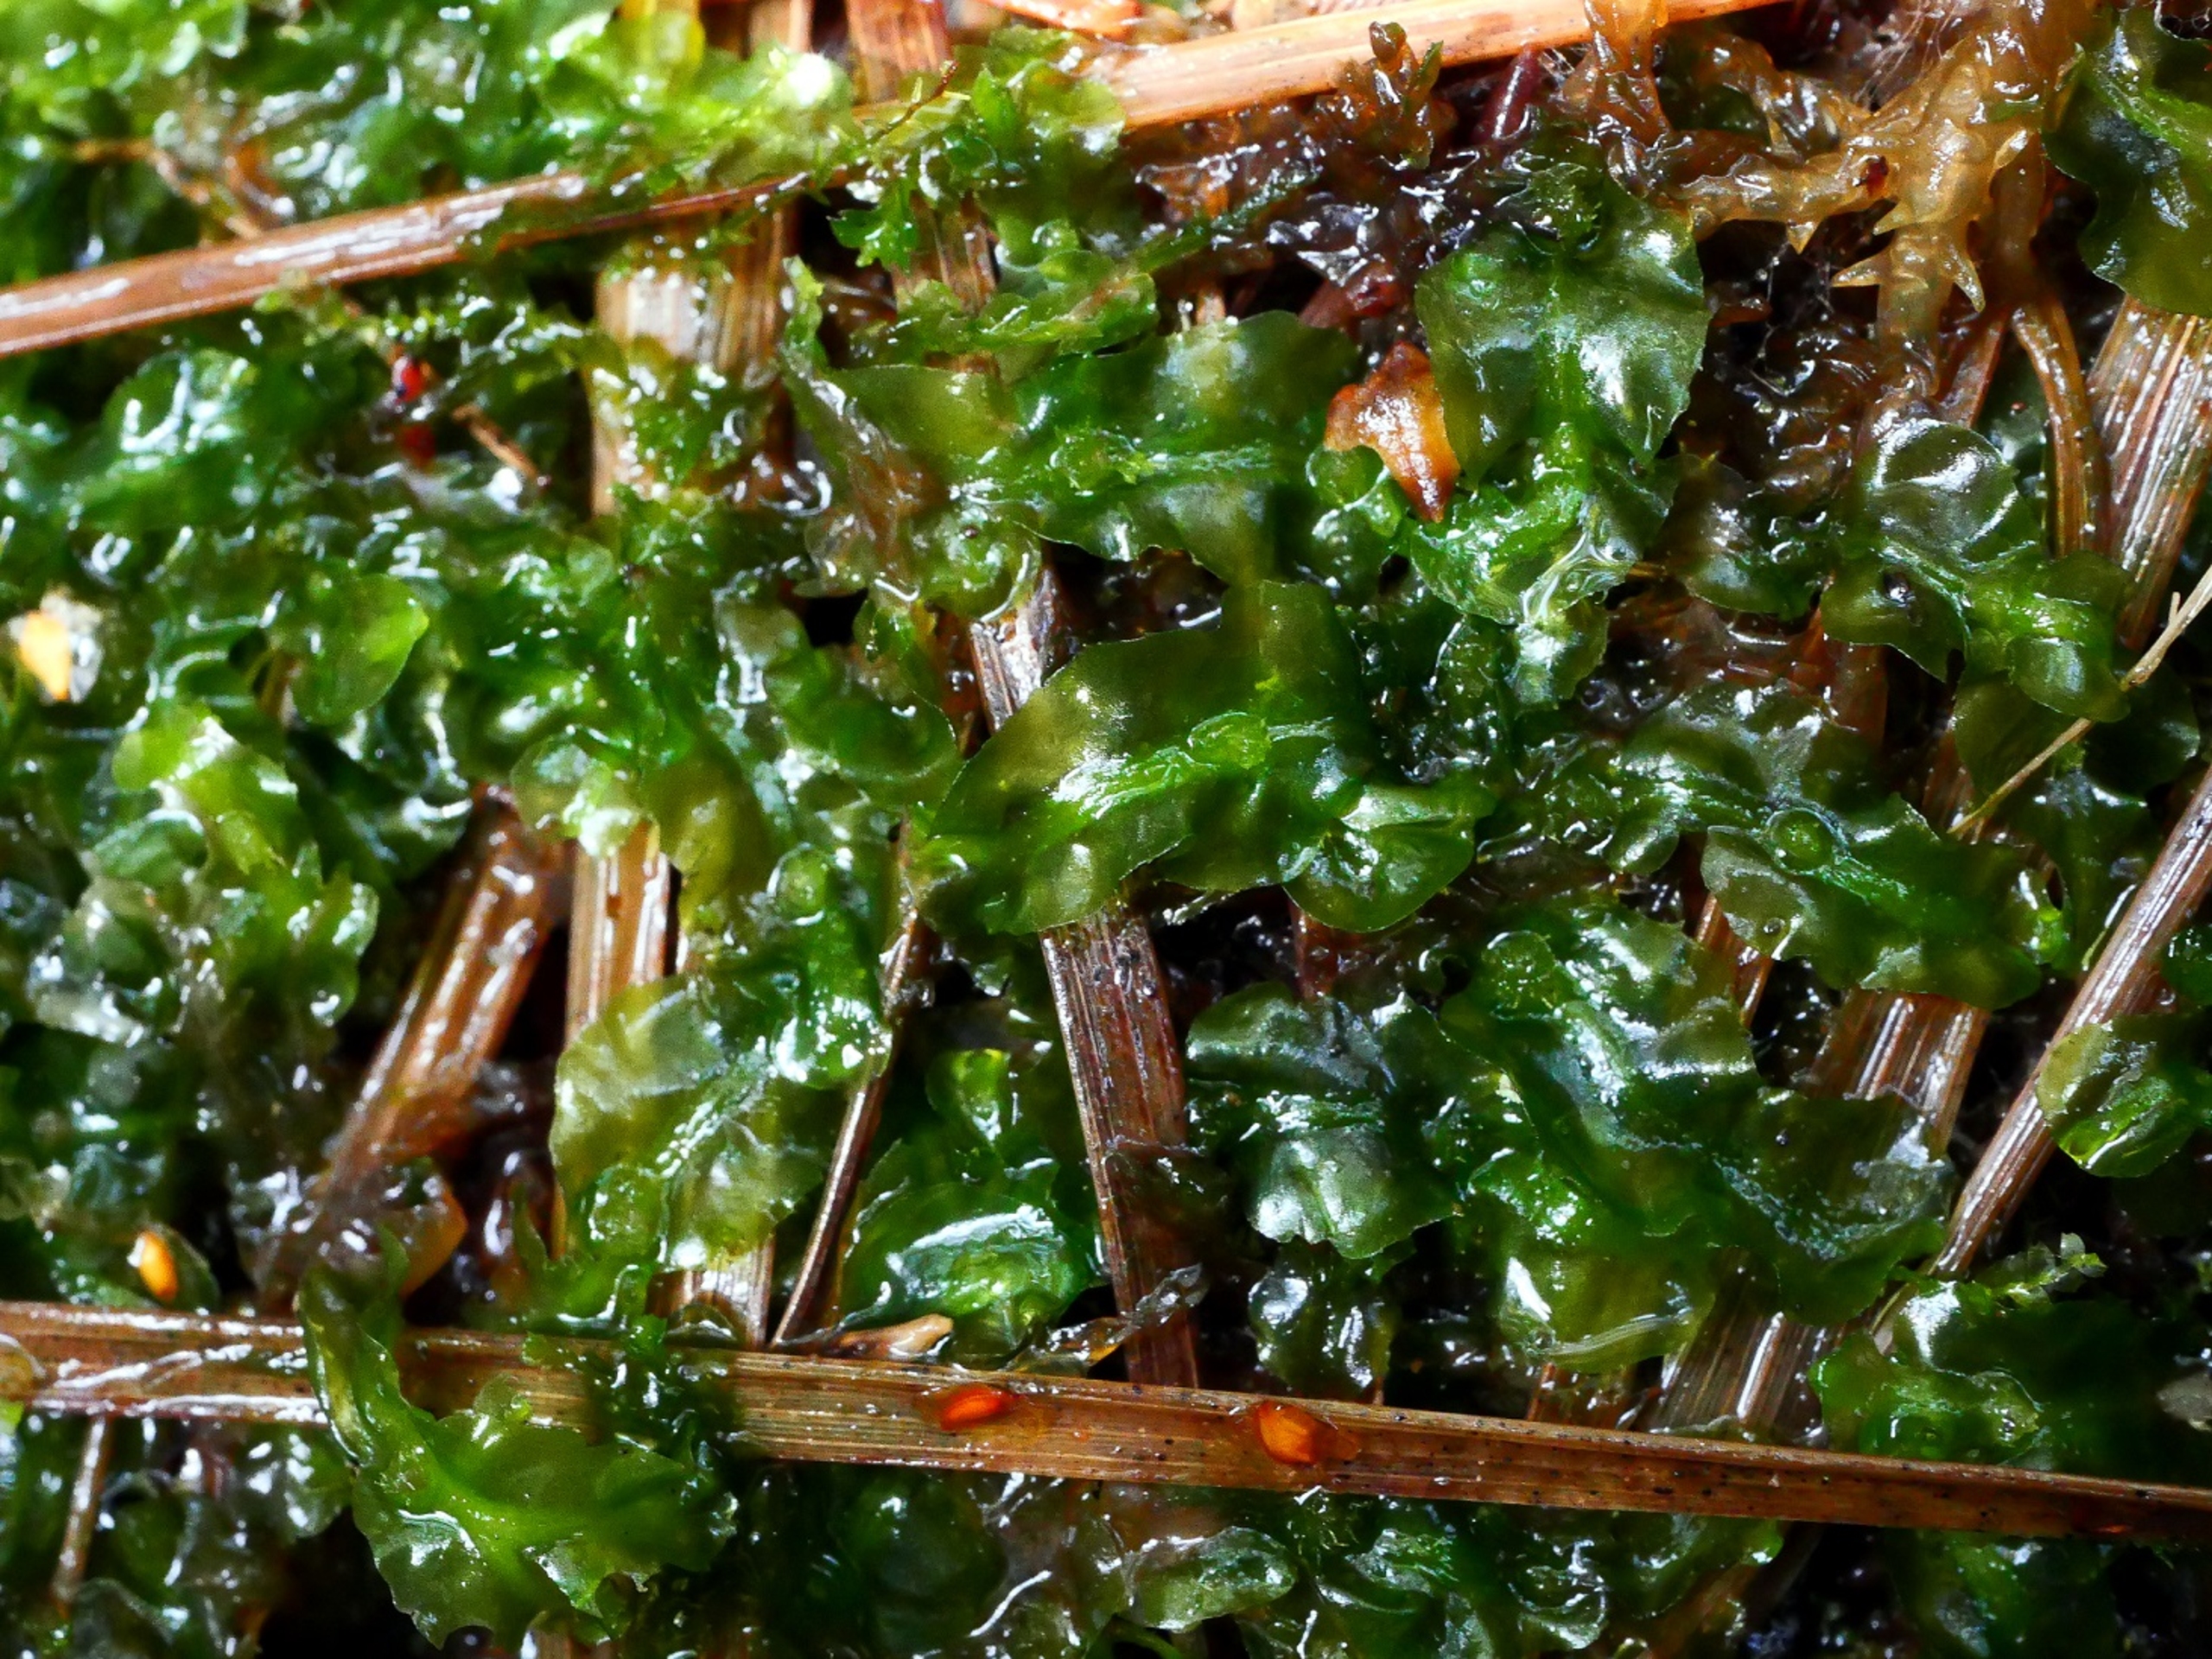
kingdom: Plantae
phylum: Marchantiophyta
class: Jungermanniopsida
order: Pallaviciniales
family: Pallaviciniaceae
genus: Pallavicinia
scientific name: Pallavicinia lyellii
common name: Almindelig strengløv
